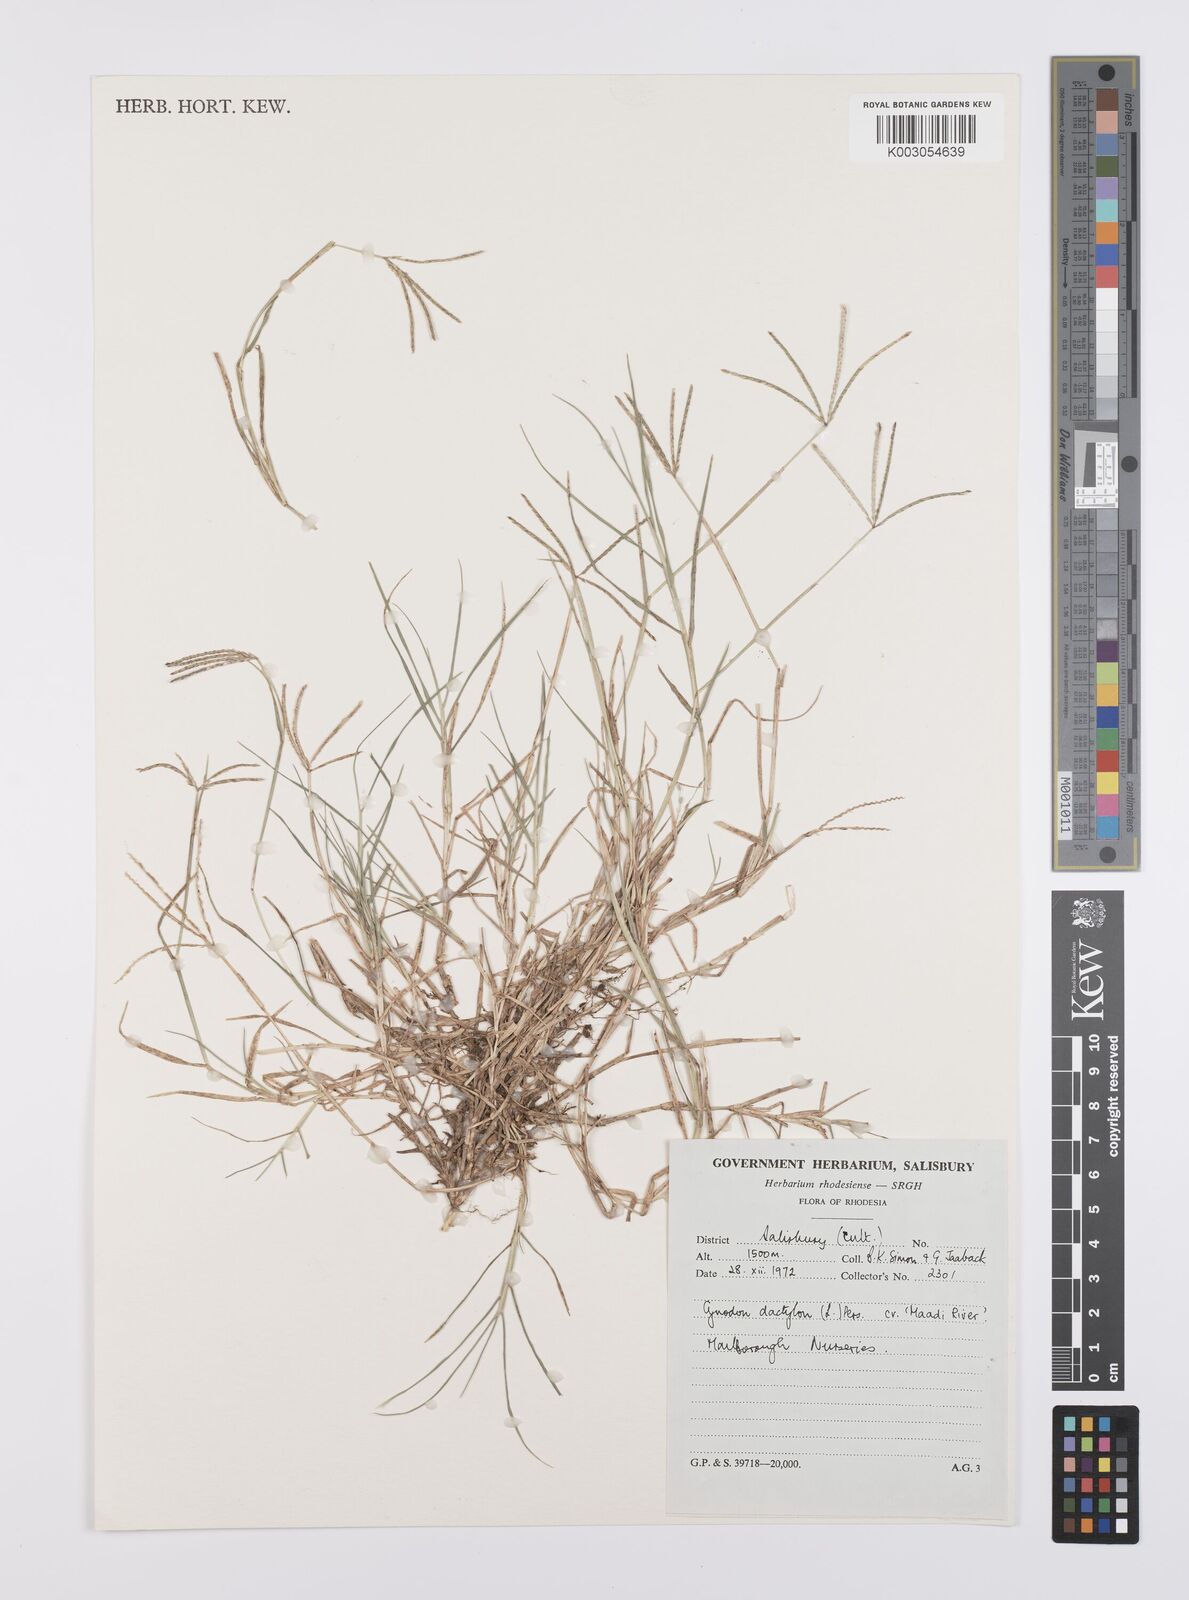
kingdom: Plantae
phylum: Tracheophyta
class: Liliopsida
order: Poales
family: Poaceae
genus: Cynodon
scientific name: Cynodon dactylon
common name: Bermuda grass
